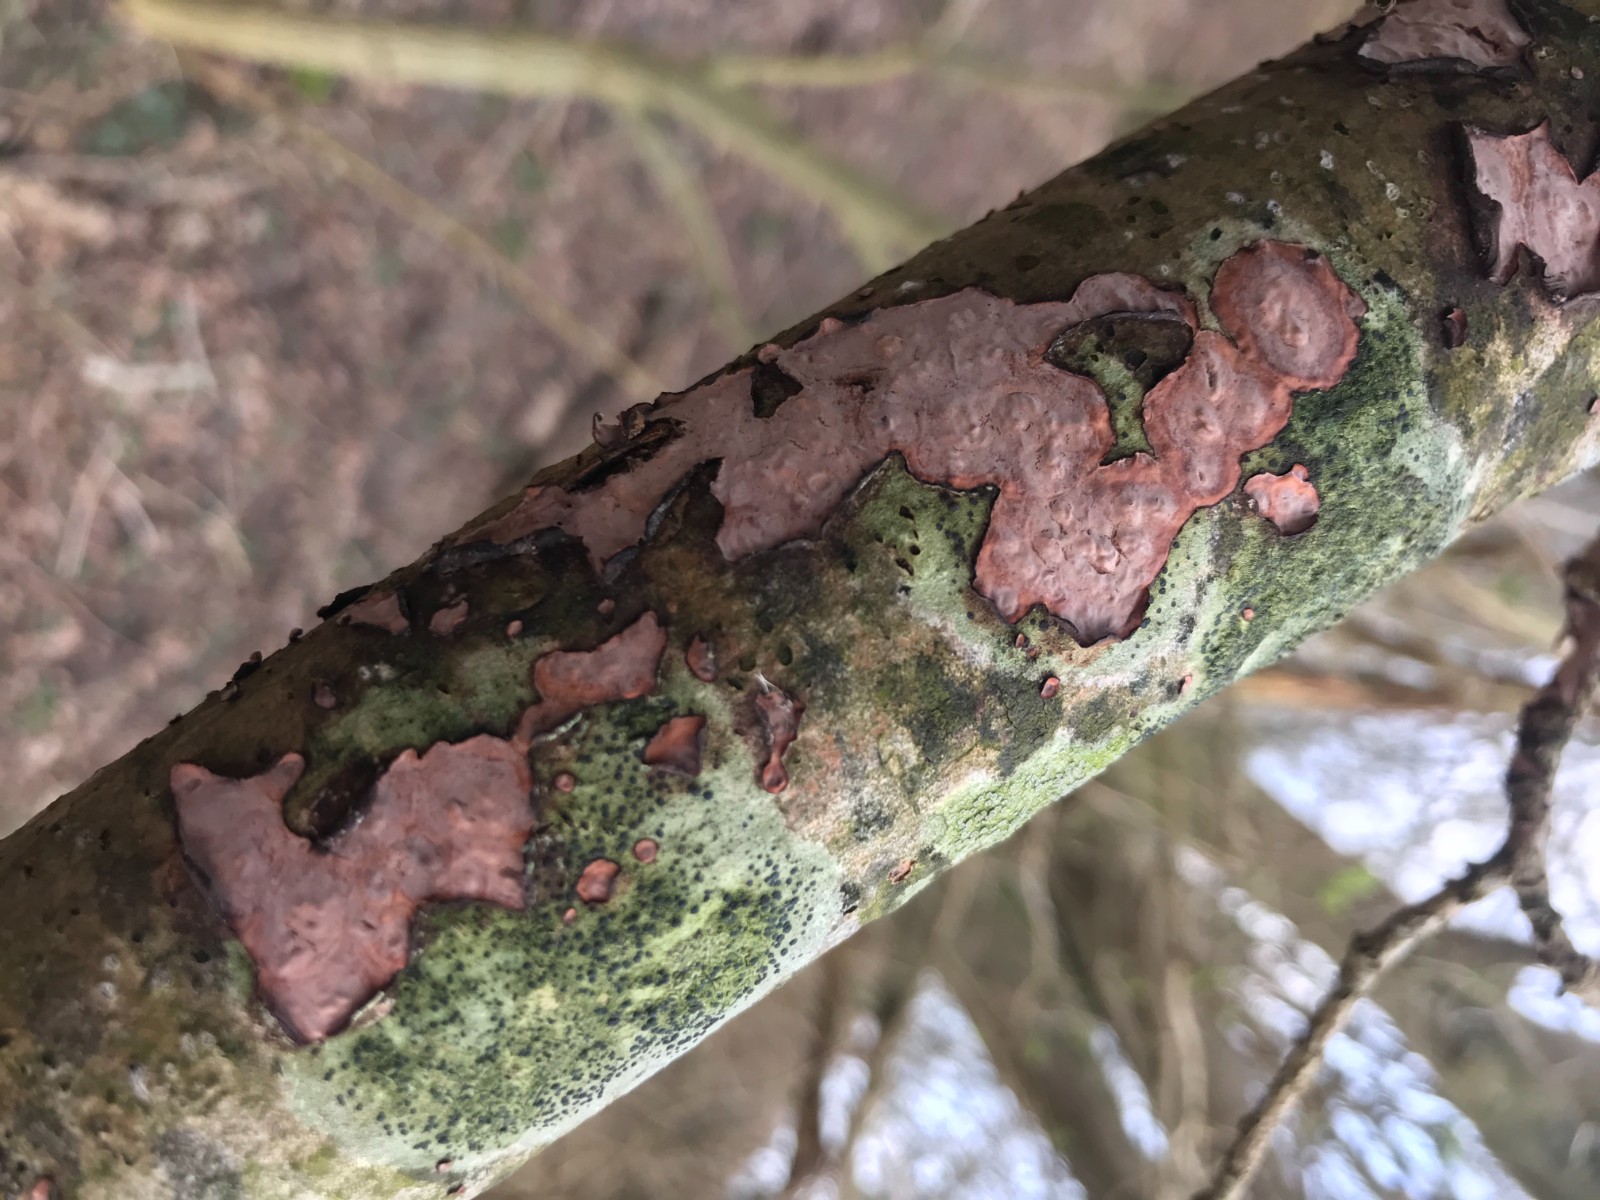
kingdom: Fungi
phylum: Basidiomycota
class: Agaricomycetes
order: Russulales
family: Peniophoraceae
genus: Peniophora
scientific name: Peniophora quercina
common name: ege-voksskind
